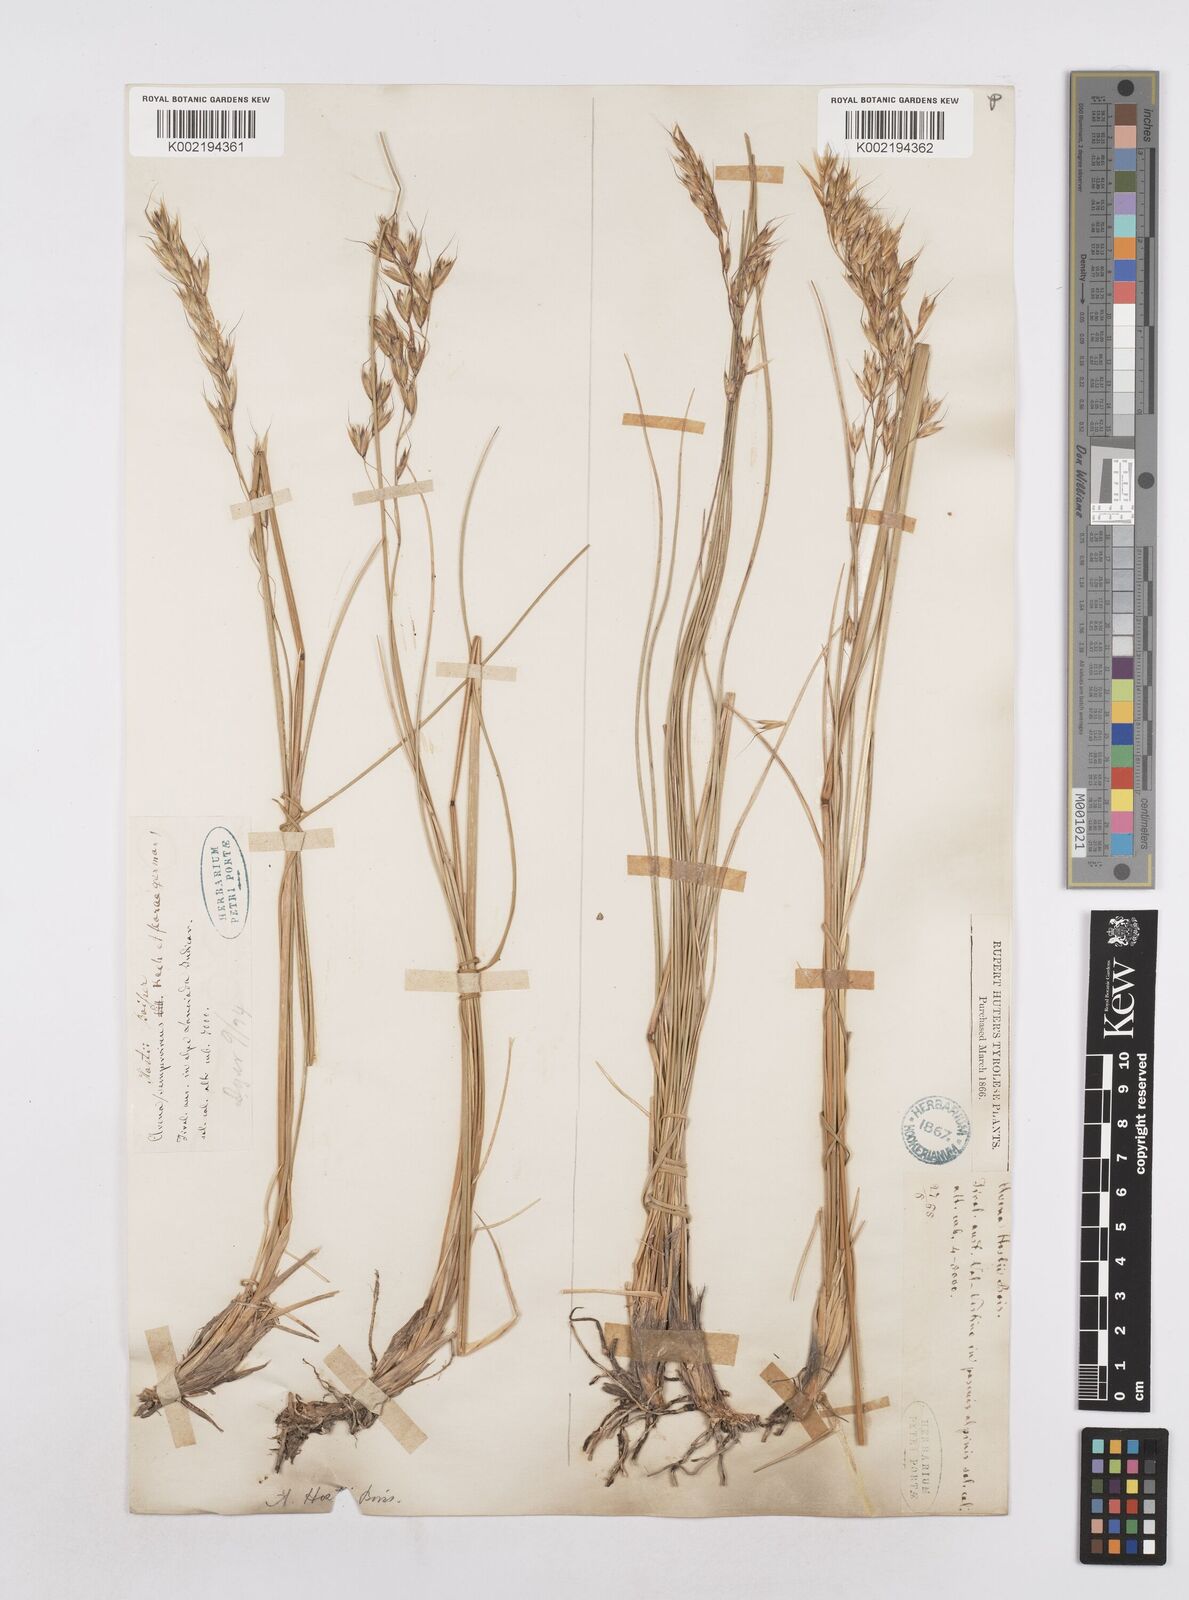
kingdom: Plantae
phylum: Tracheophyta
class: Liliopsida
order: Poales
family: Poaceae
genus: Helictotrichon
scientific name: Helictotrichon parlatorei
